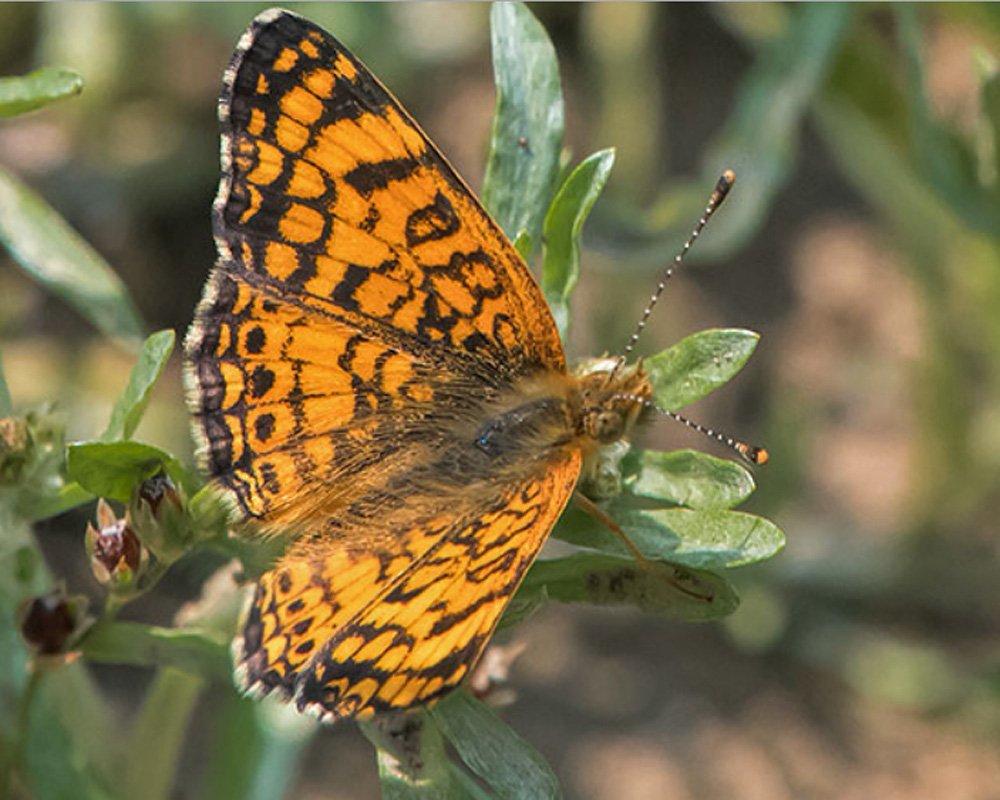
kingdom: Animalia
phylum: Arthropoda
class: Insecta
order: Lepidoptera
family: Nymphalidae
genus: Eresia
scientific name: Eresia aveyrona
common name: Mylitta Crescent
